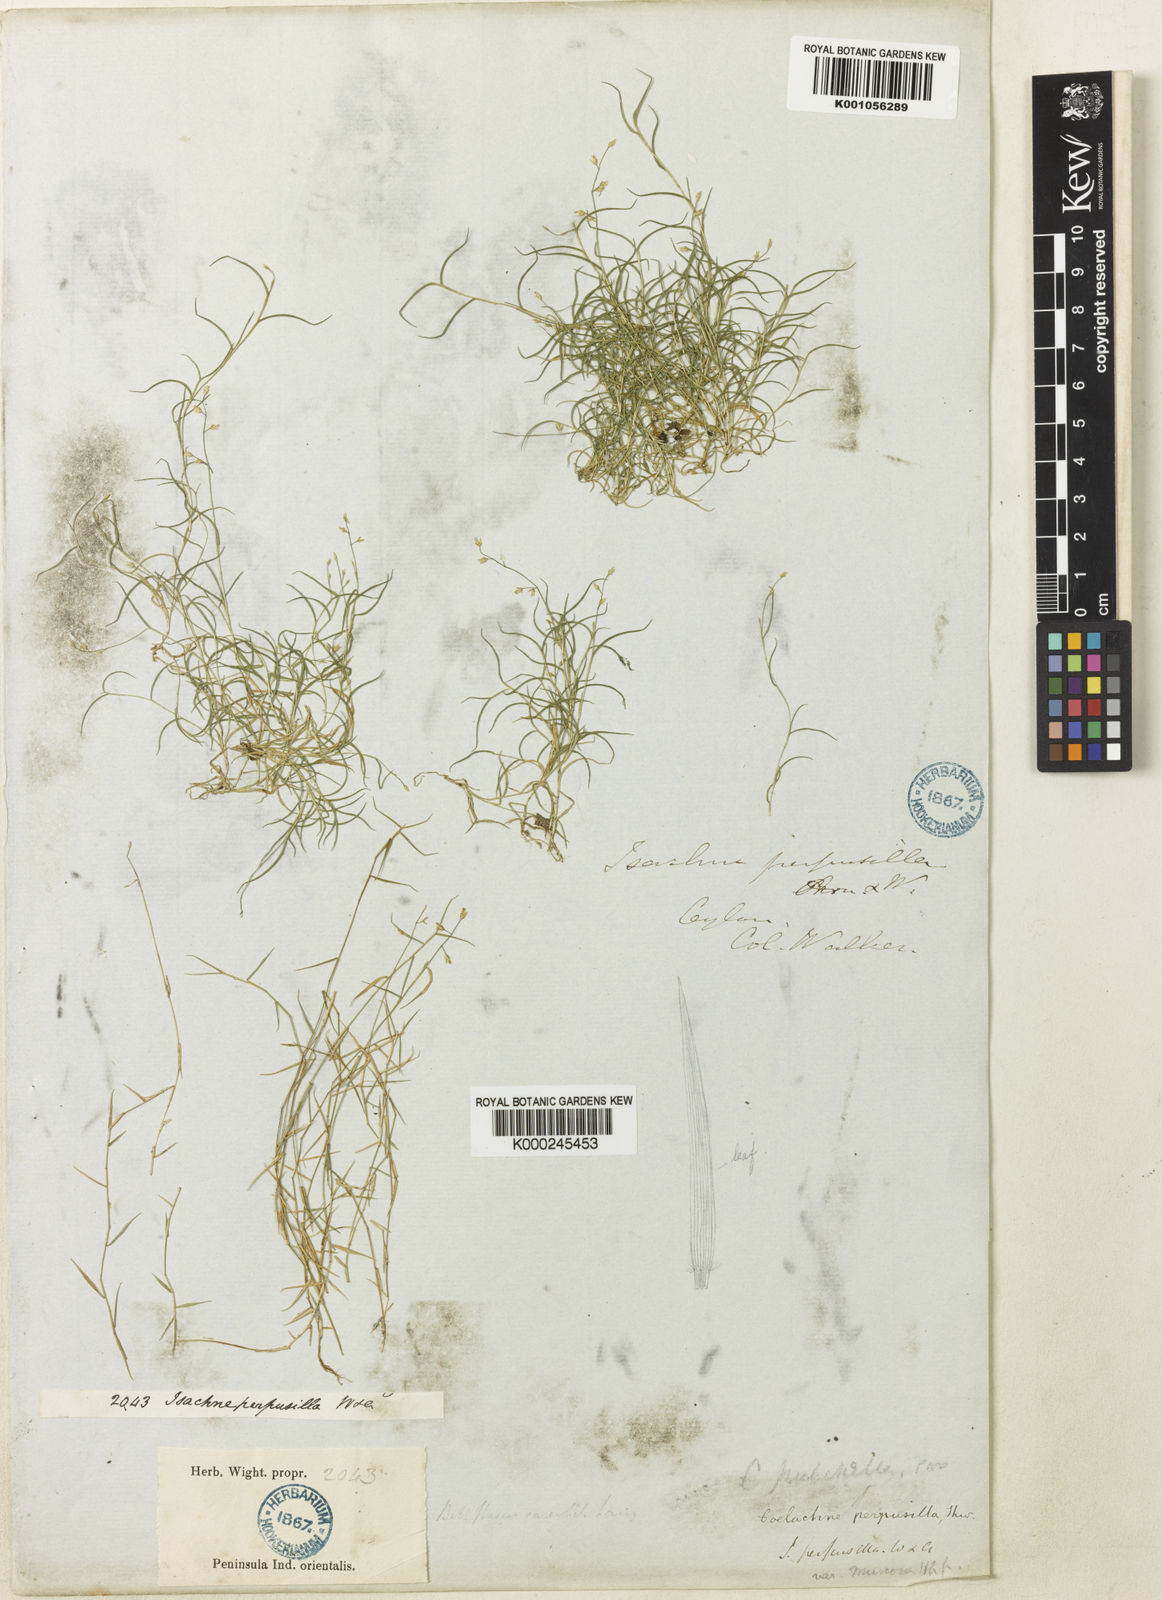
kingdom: Plantae
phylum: Tracheophyta
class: Liliopsida
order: Poales
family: Poaceae
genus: Coelachne
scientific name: Coelachne perpusilla
